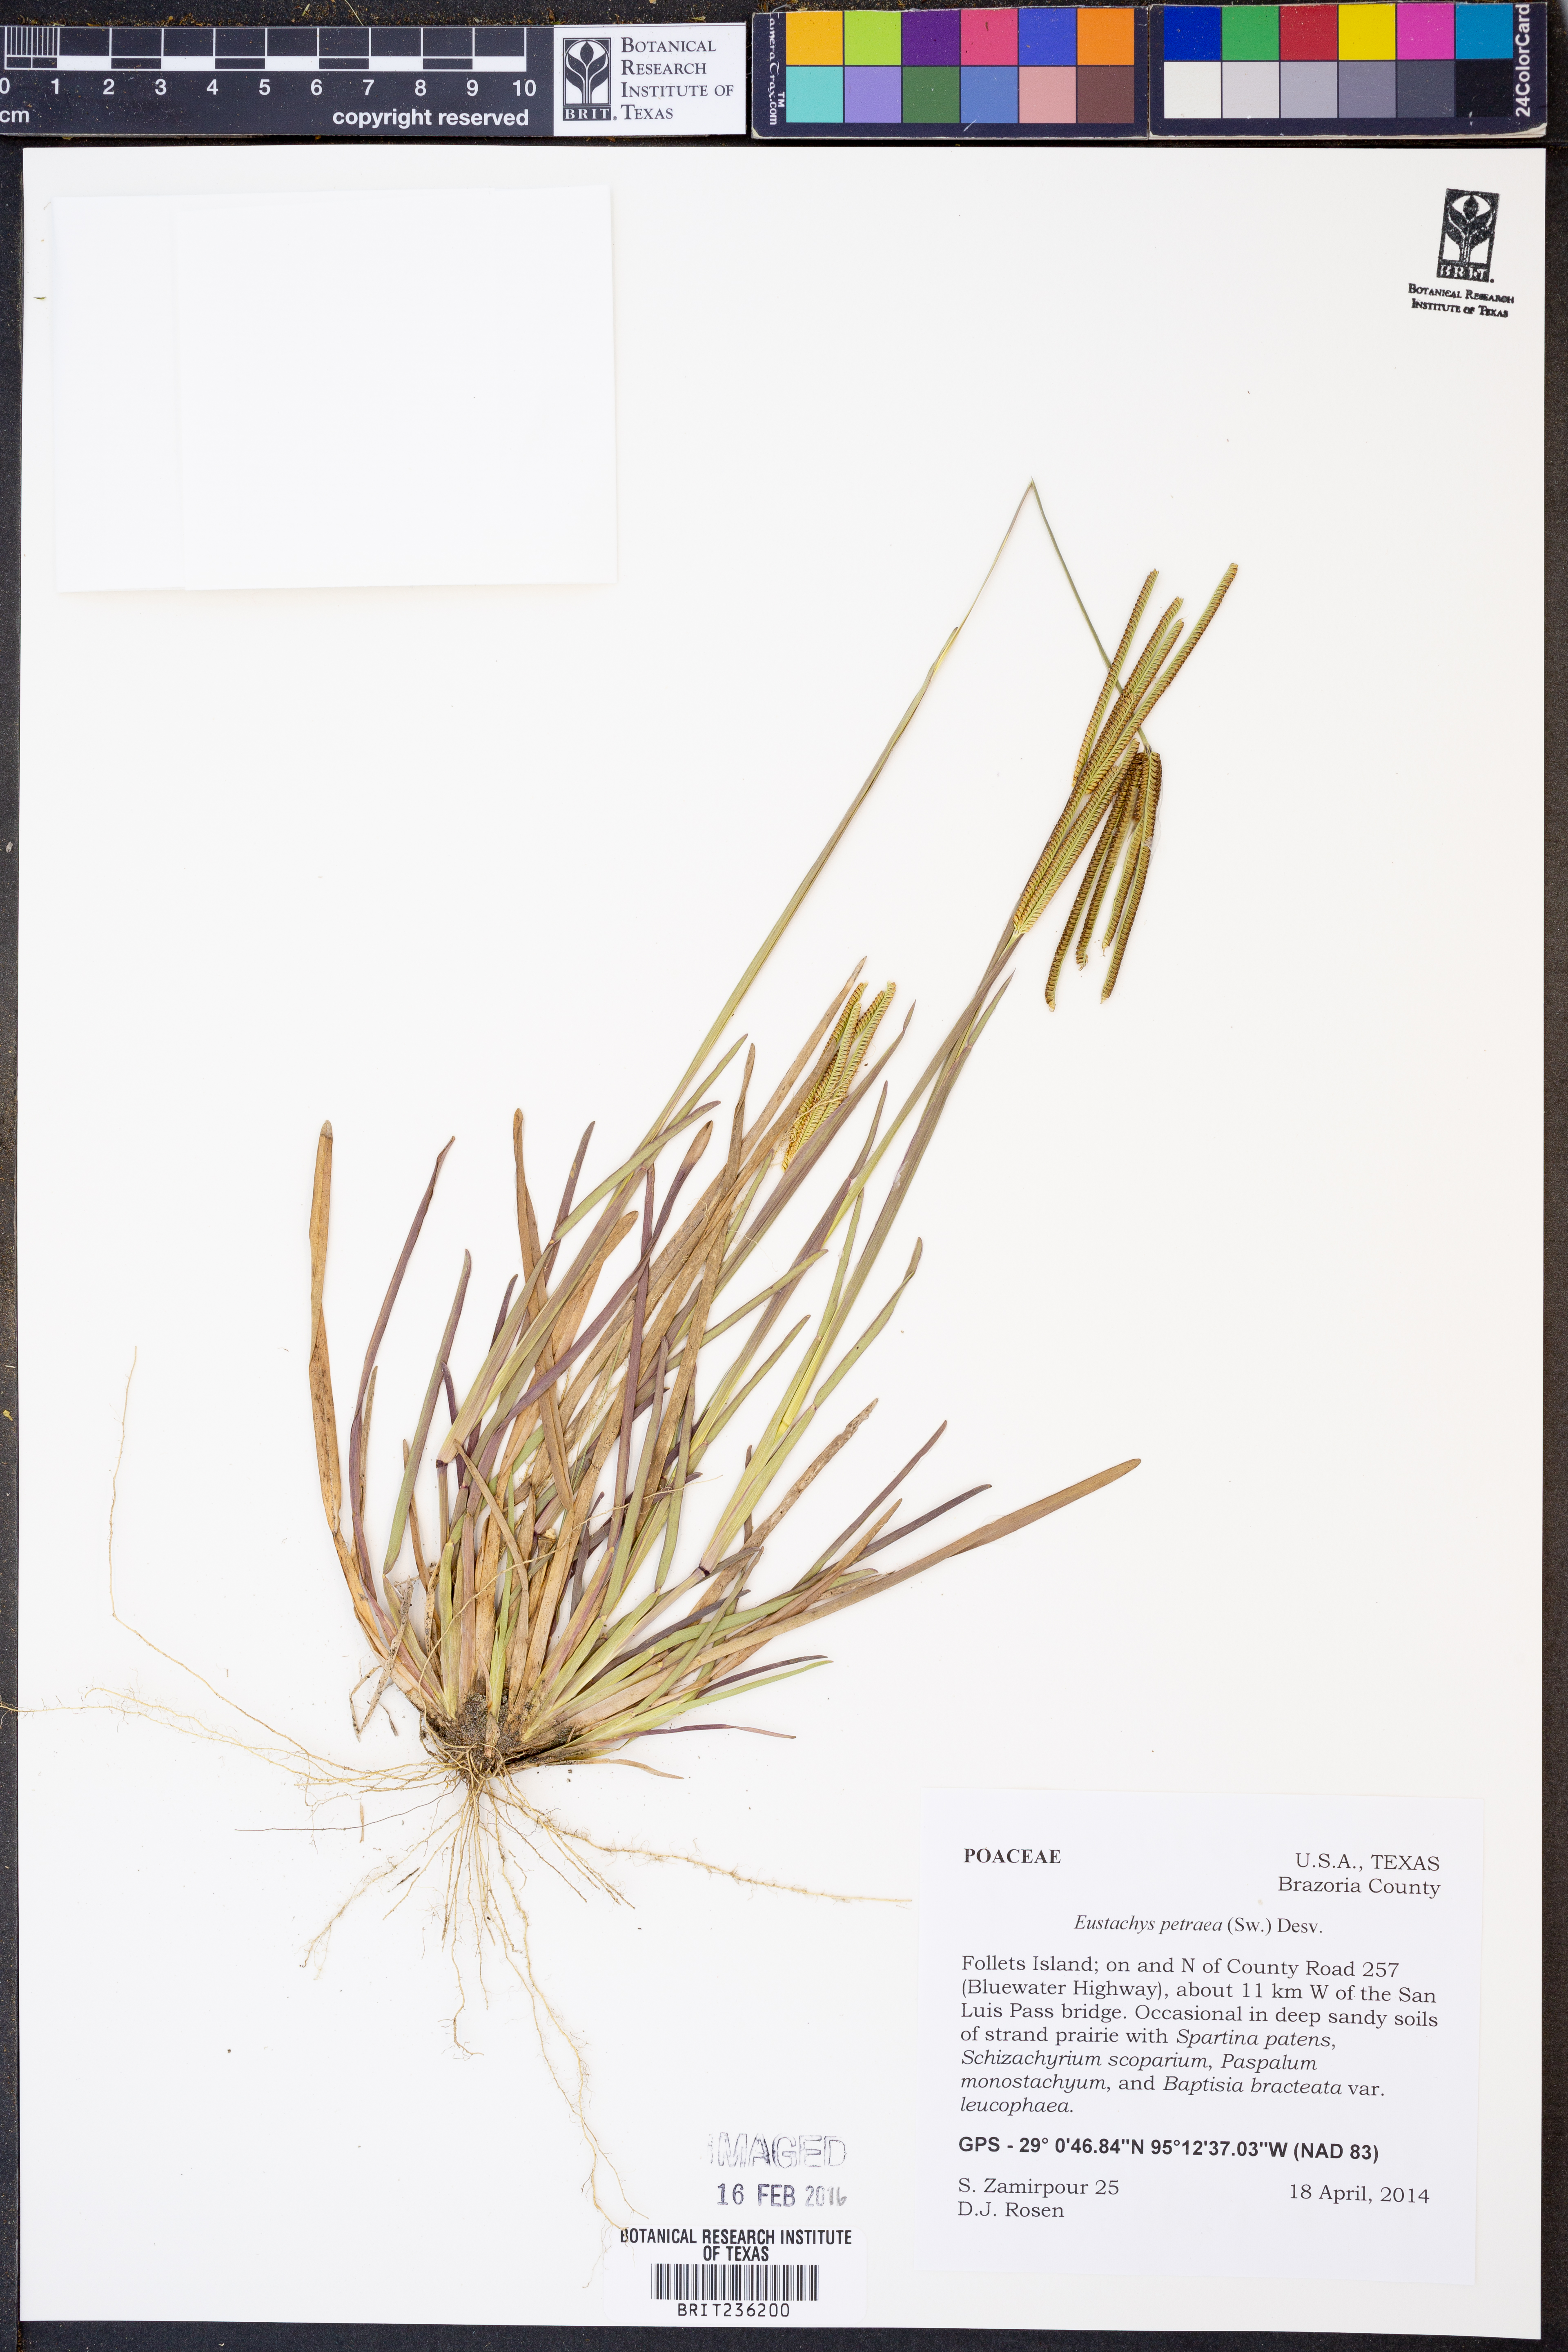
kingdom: Plantae
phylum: Tracheophyta
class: Liliopsida
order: Poales
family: Poaceae
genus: Eustachys
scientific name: Eustachys petraea
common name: Pinewoods fingergrass
